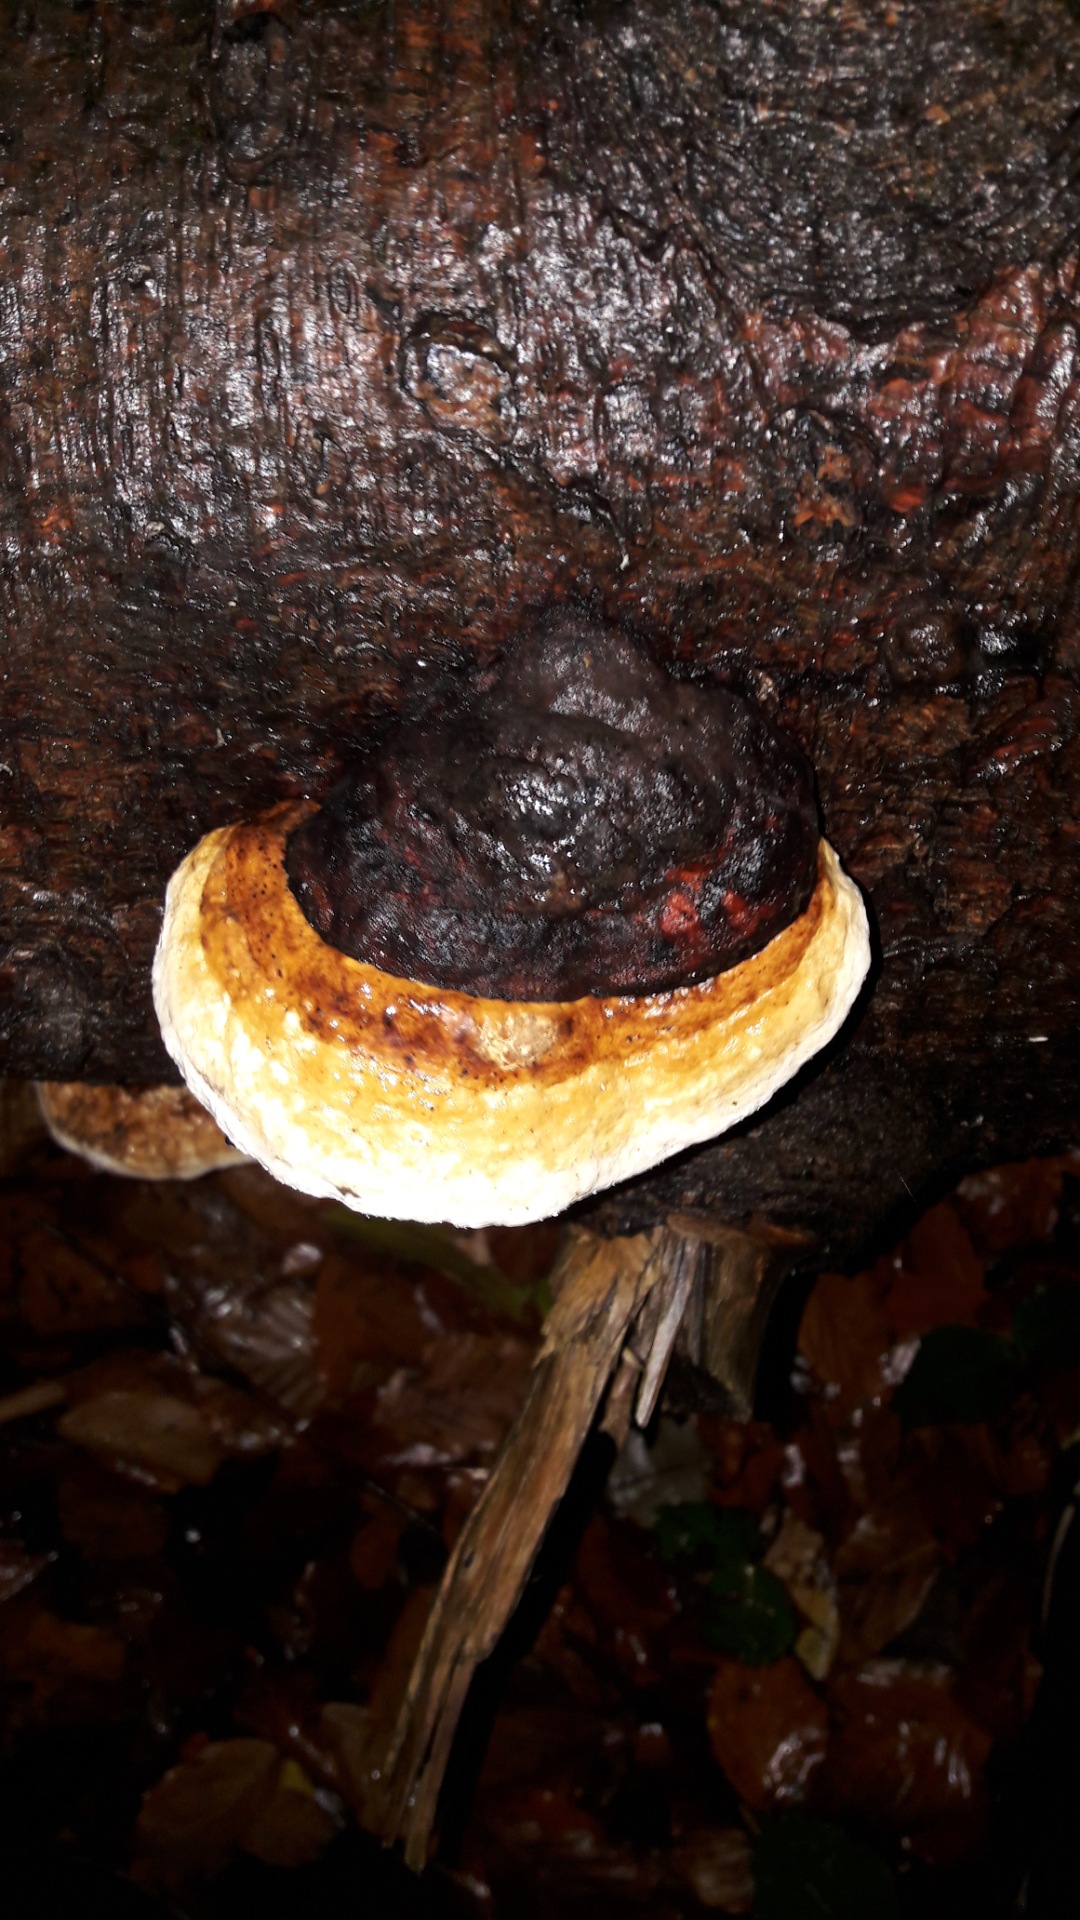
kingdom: Fungi
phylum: Basidiomycota
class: Agaricomycetes
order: Polyporales
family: Fomitopsidaceae
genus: Fomitopsis
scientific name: Fomitopsis pinicola
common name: randbæltet hovporesvamp
